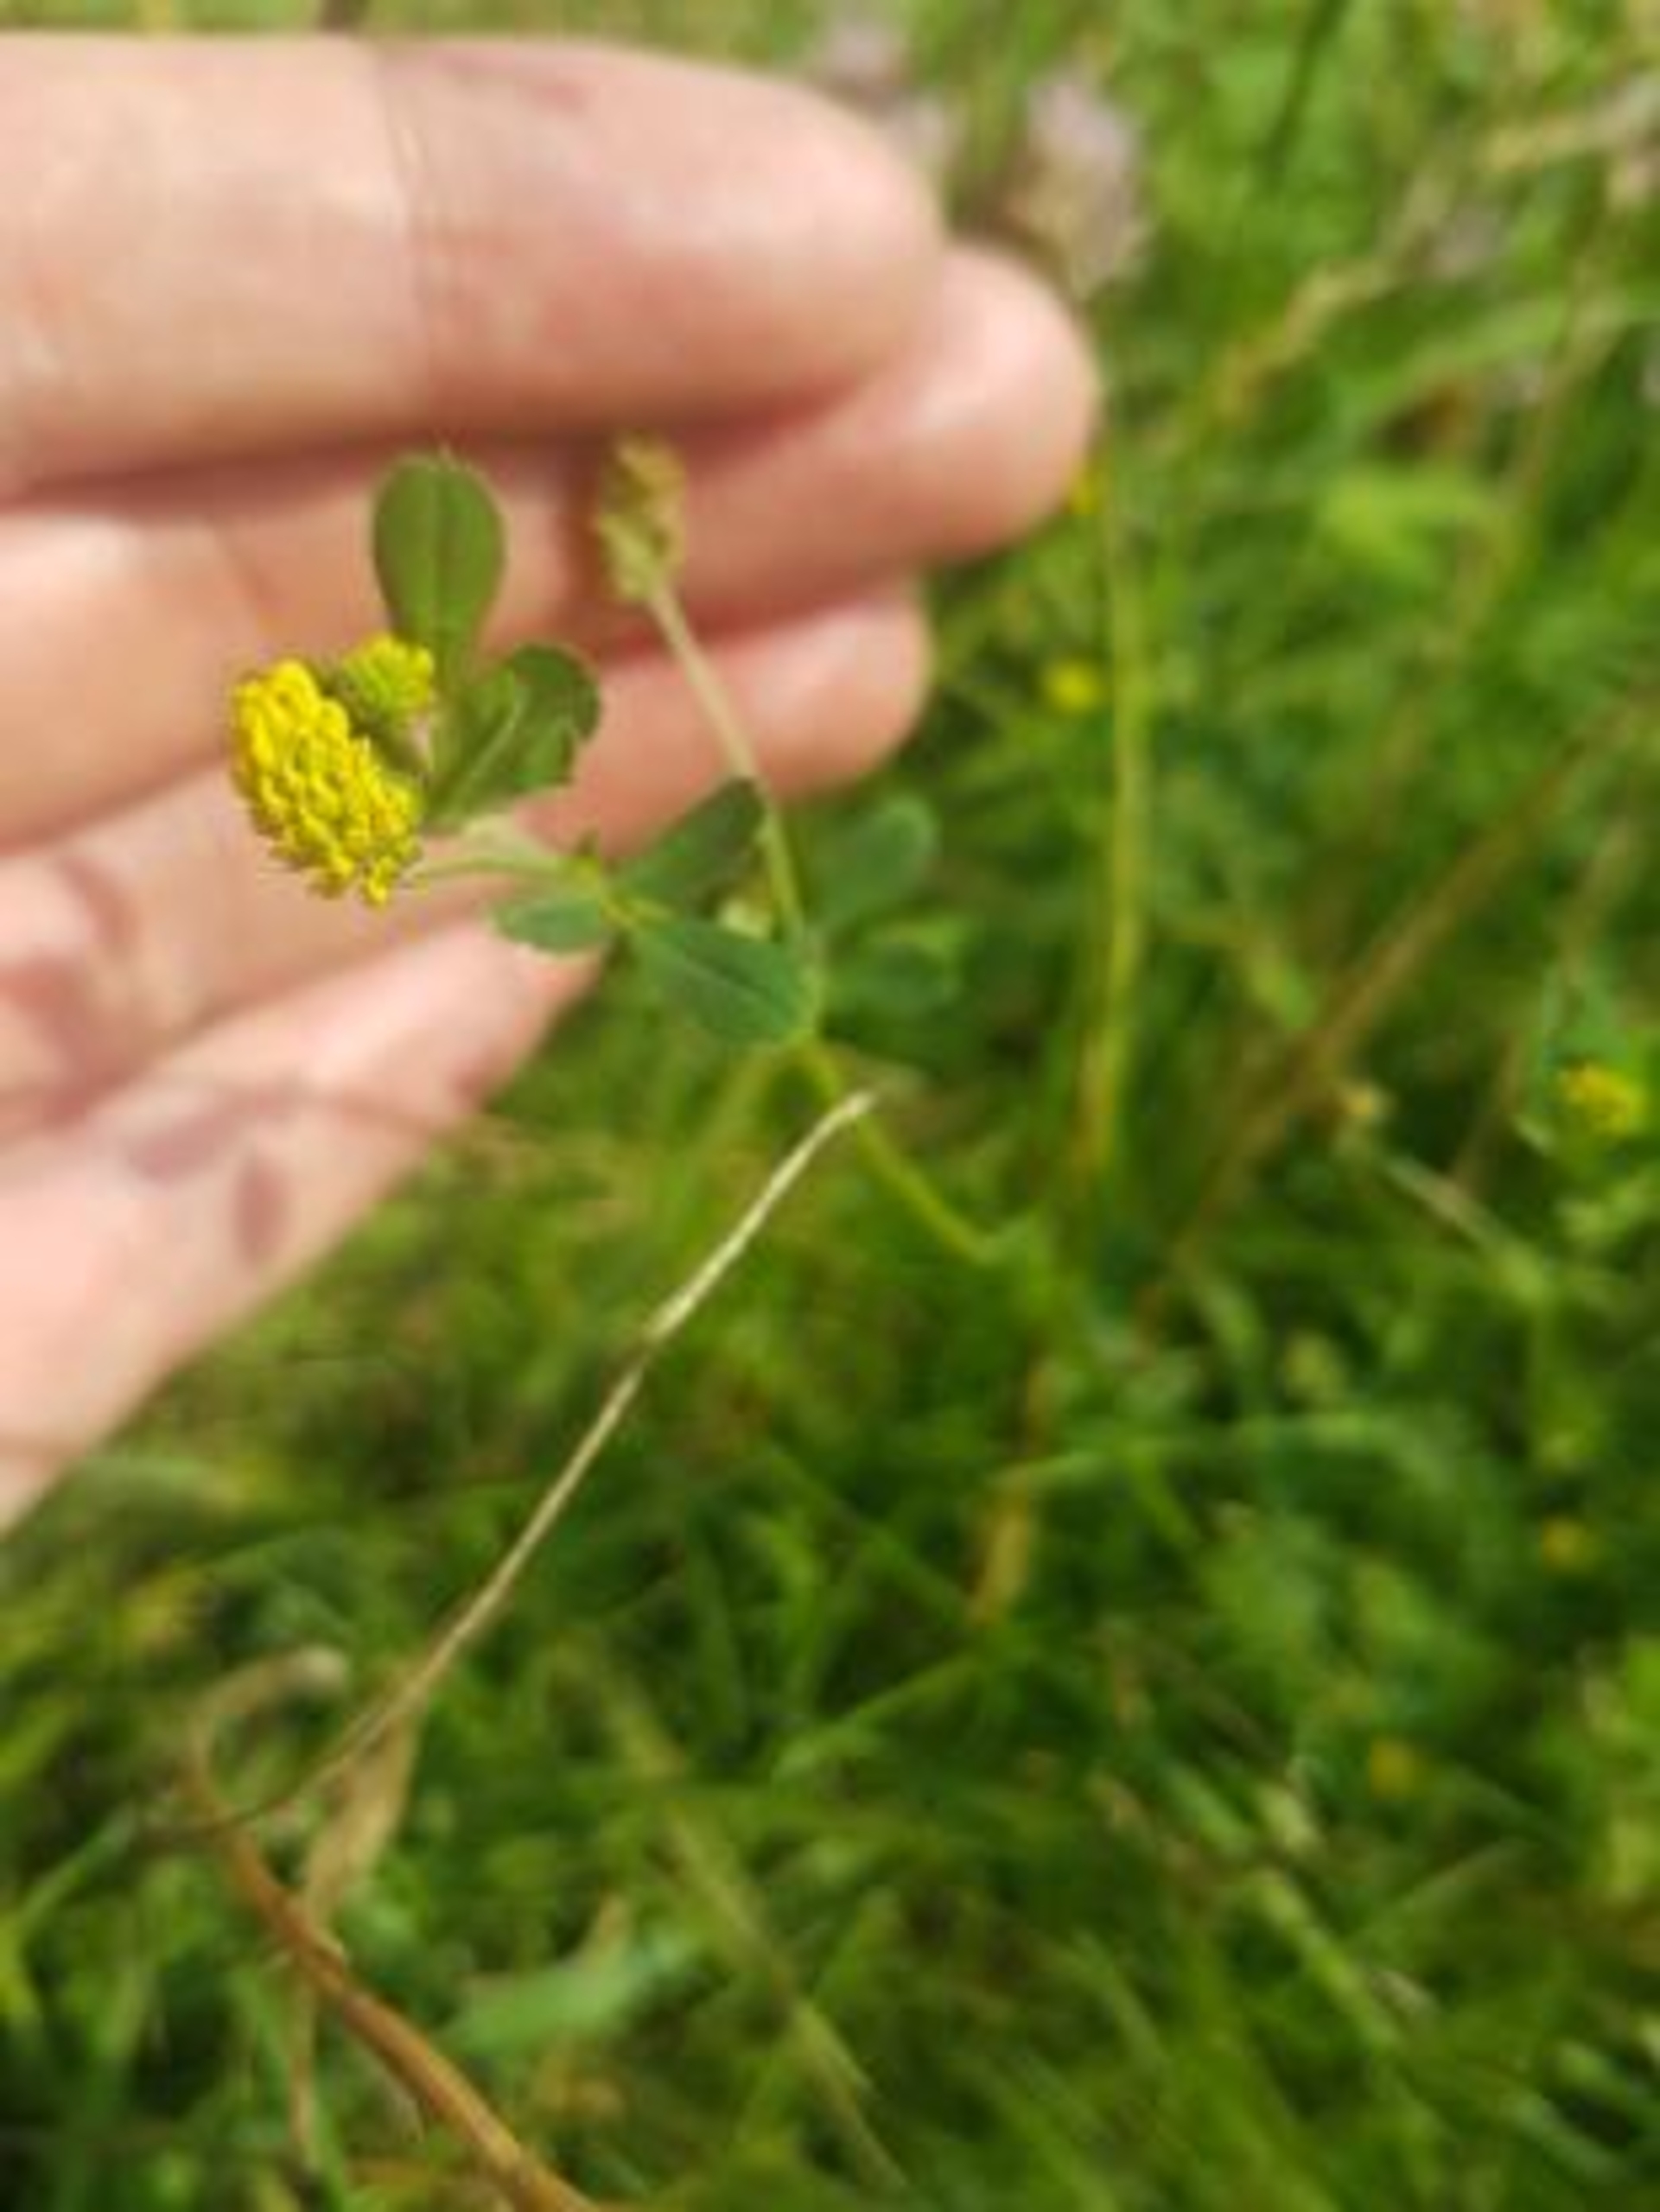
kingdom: Plantae
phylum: Tracheophyta
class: Magnoliopsida
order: Fabales
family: Fabaceae
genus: Medicago
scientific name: Medicago lupulina
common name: Humle-sneglebælg
